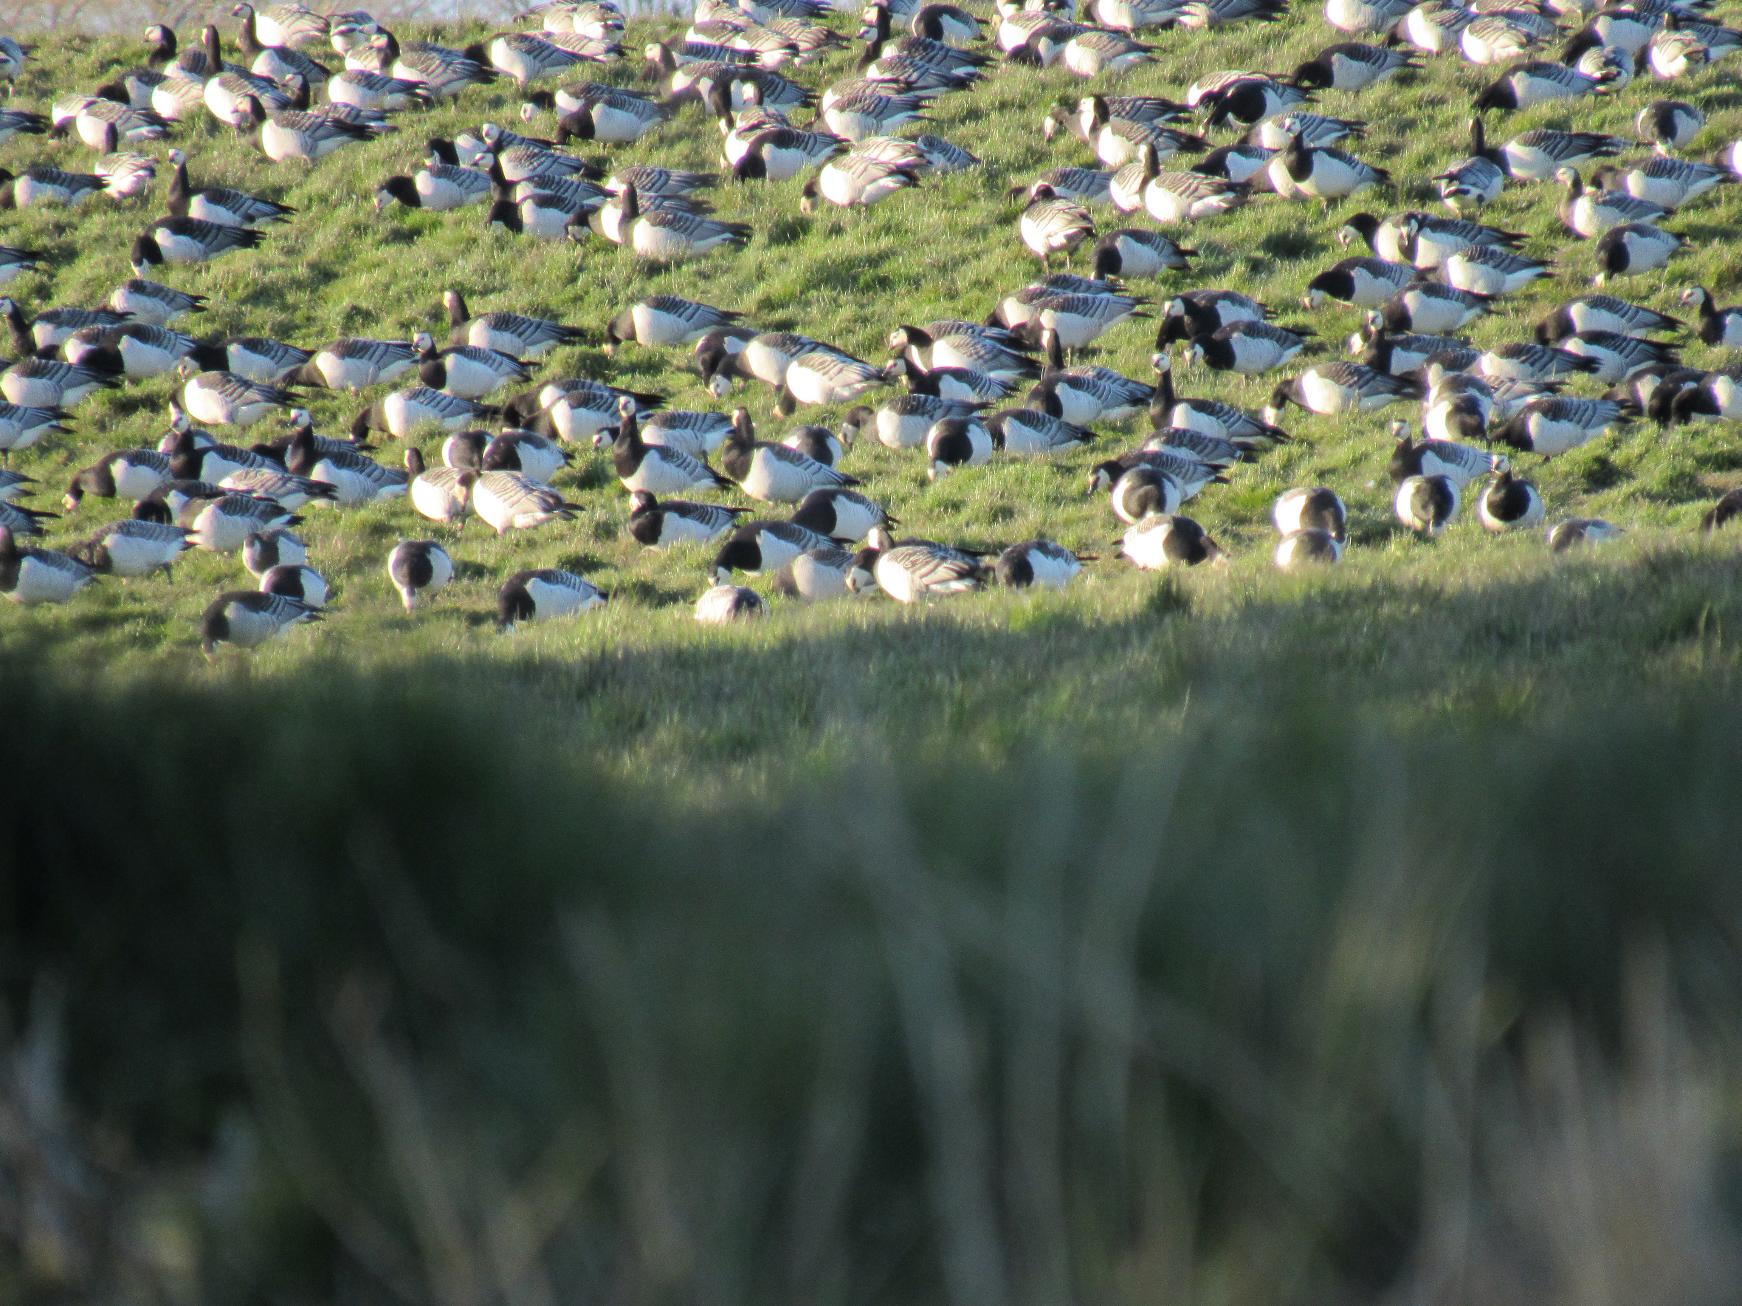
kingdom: Animalia
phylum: Chordata
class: Aves
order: Anseriformes
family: Anatidae
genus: Branta
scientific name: Branta leucopsis
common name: Bramgås
